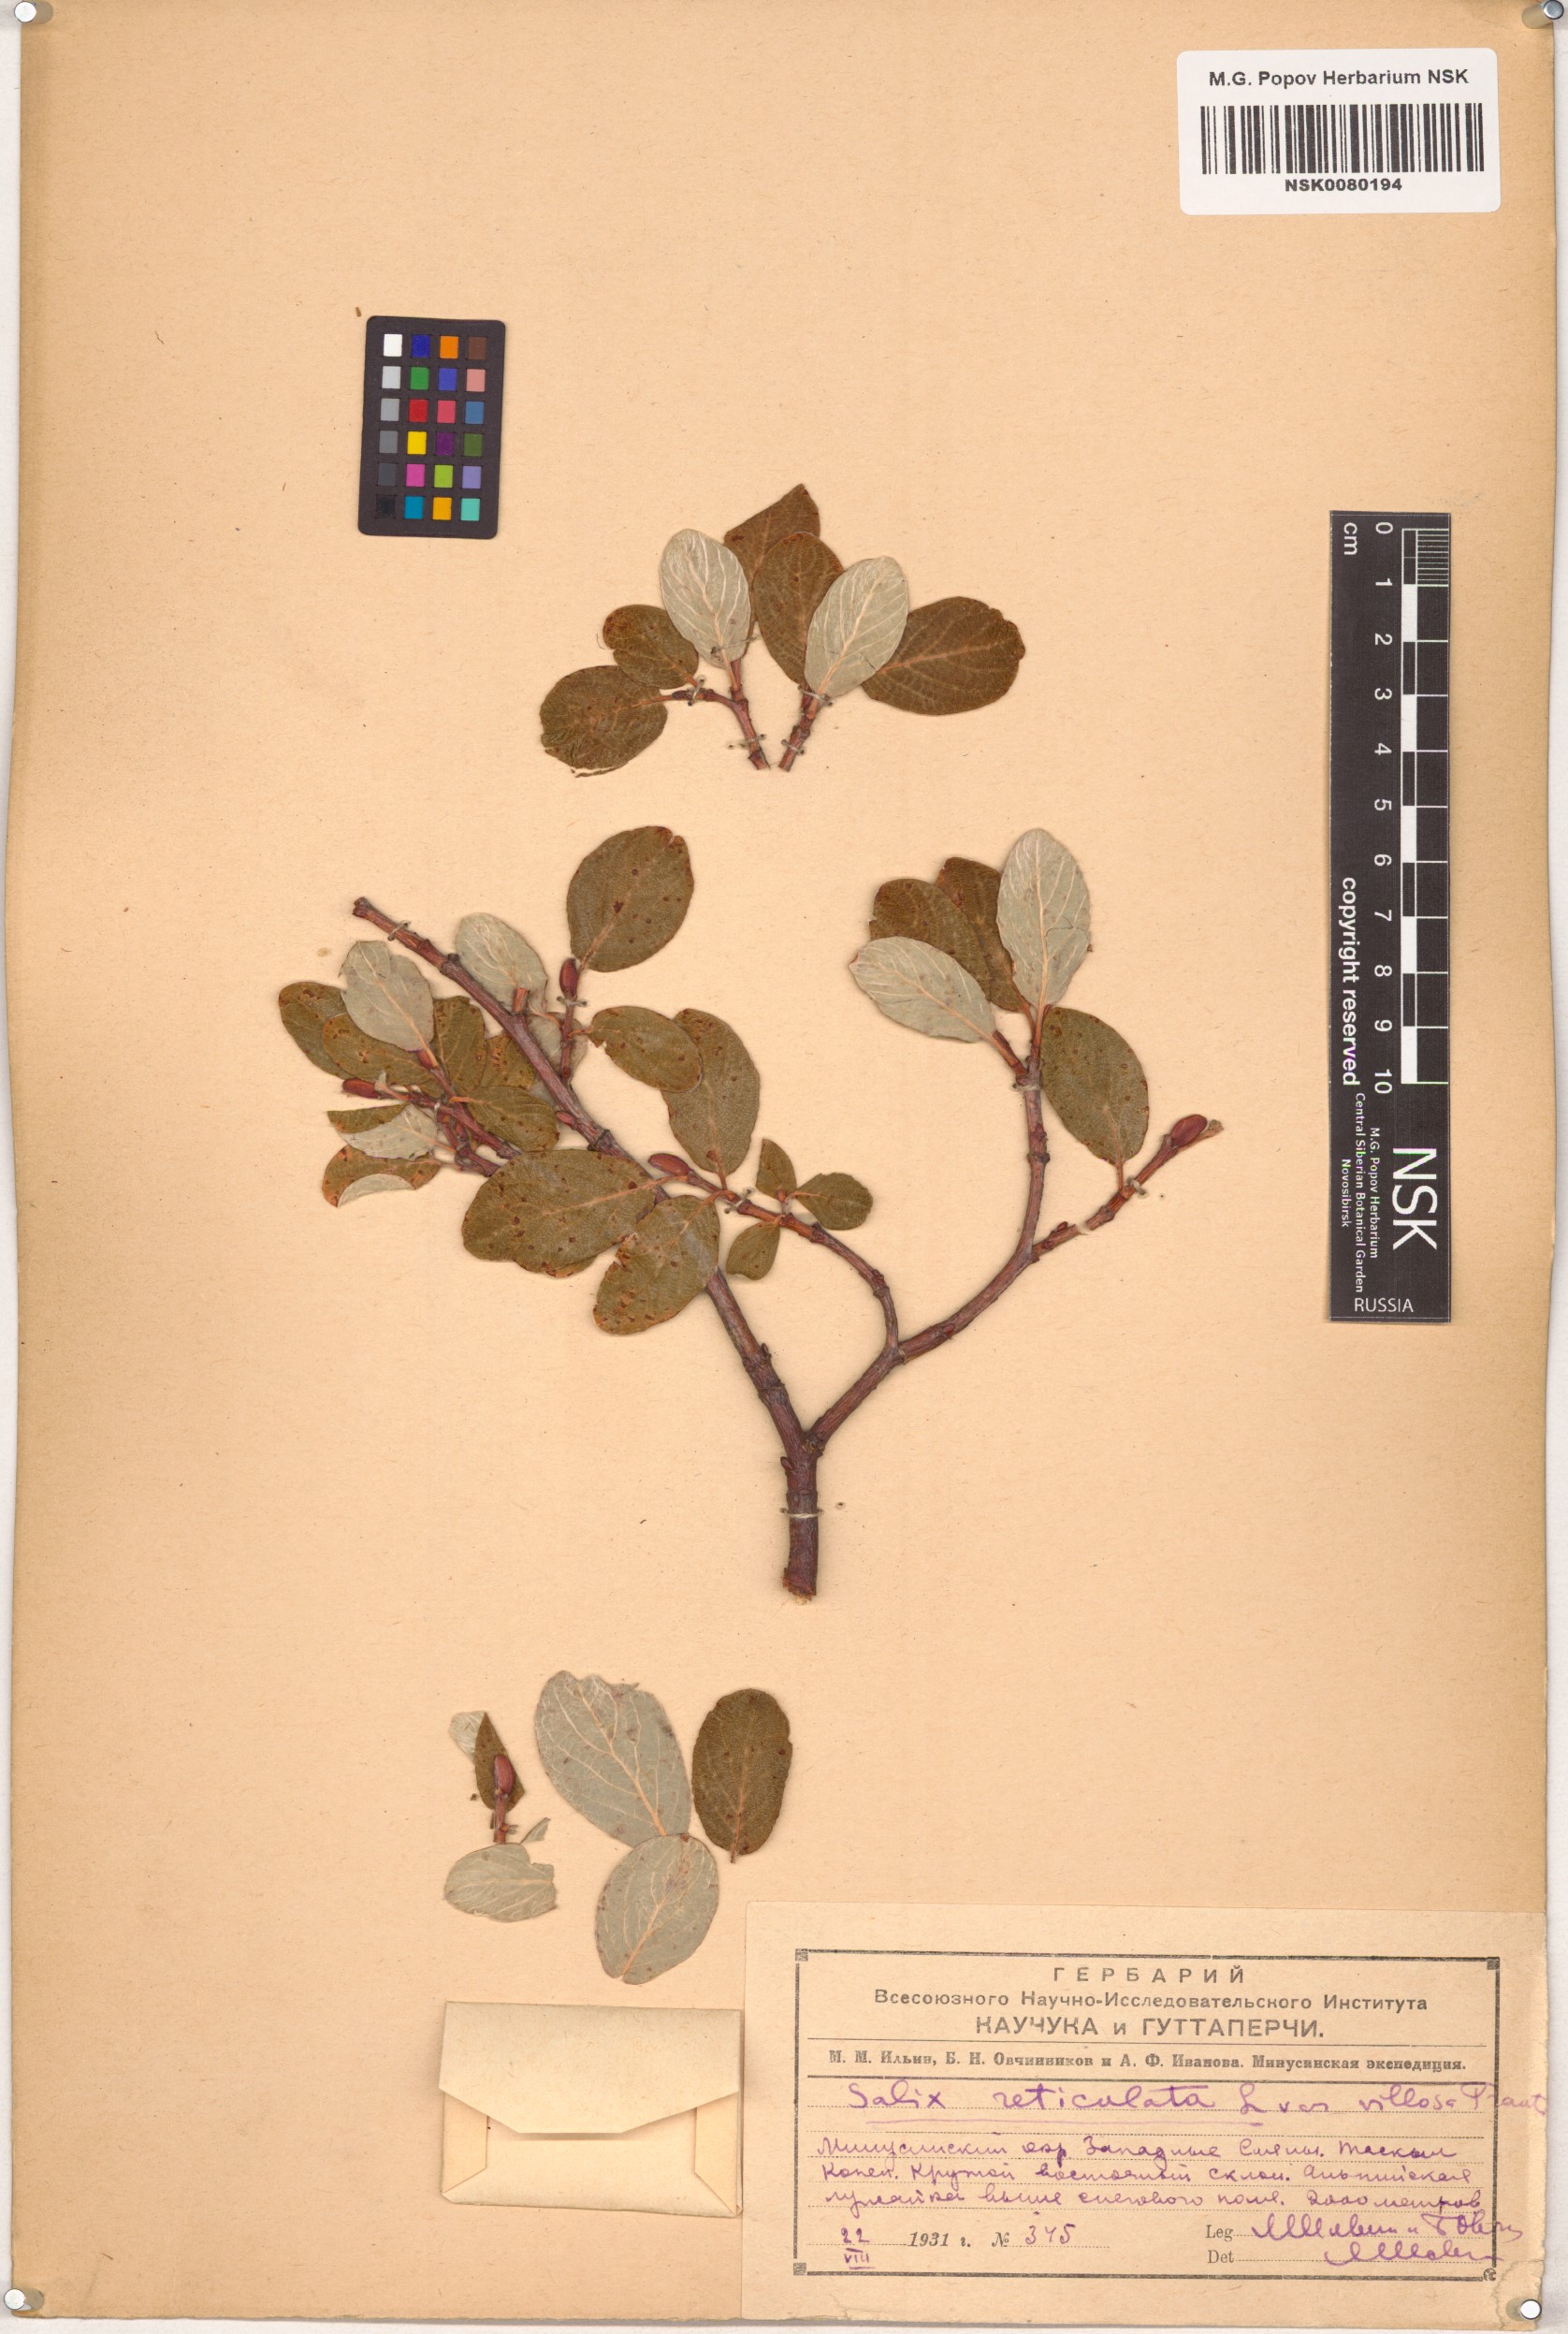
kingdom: Plantae
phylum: Tracheophyta
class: Magnoliopsida
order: Malpighiales
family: Salicaceae
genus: Salix
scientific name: Salix reticulata
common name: Net-leaved willow
